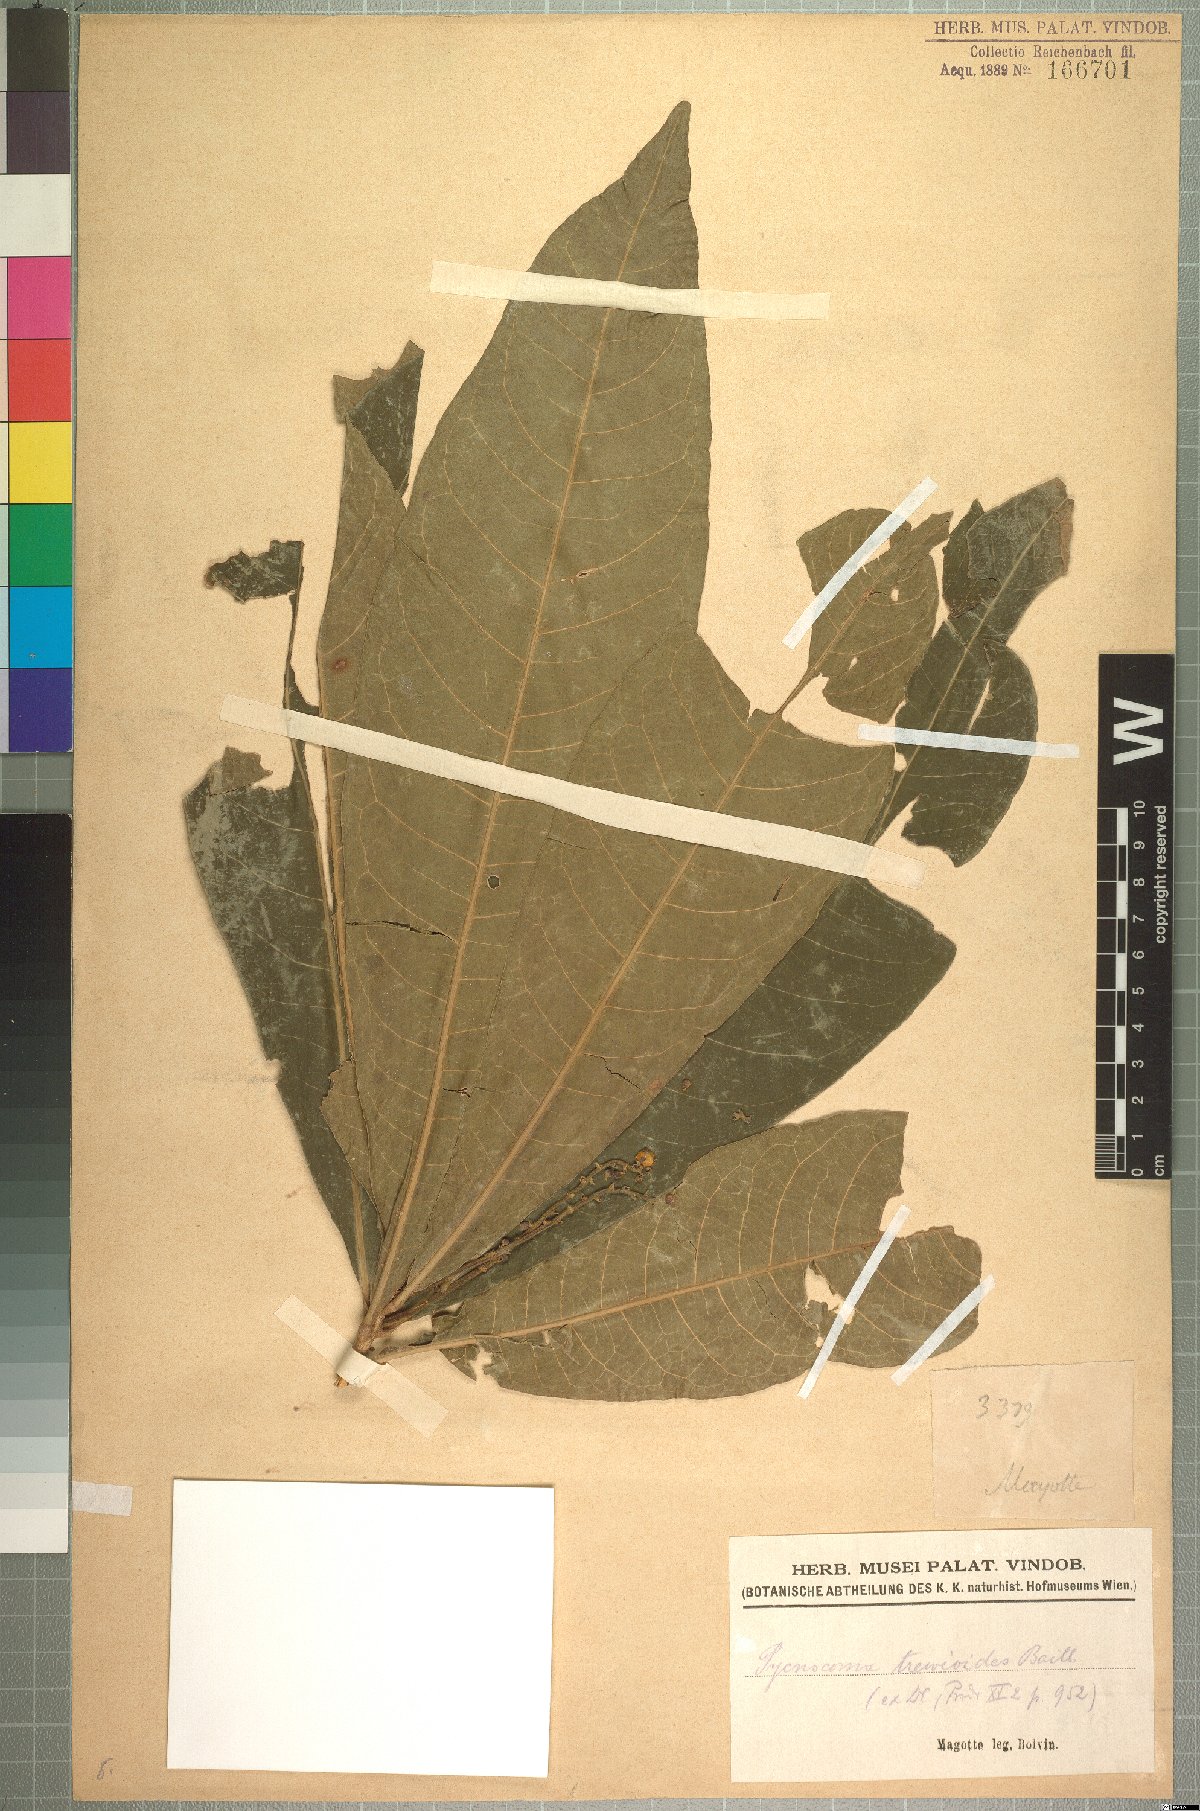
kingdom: Plantae
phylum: Tracheophyta
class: Magnoliopsida
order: Malpighiales
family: Euphorbiaceae
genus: Argomuellera
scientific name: Argomuellera trewioides
